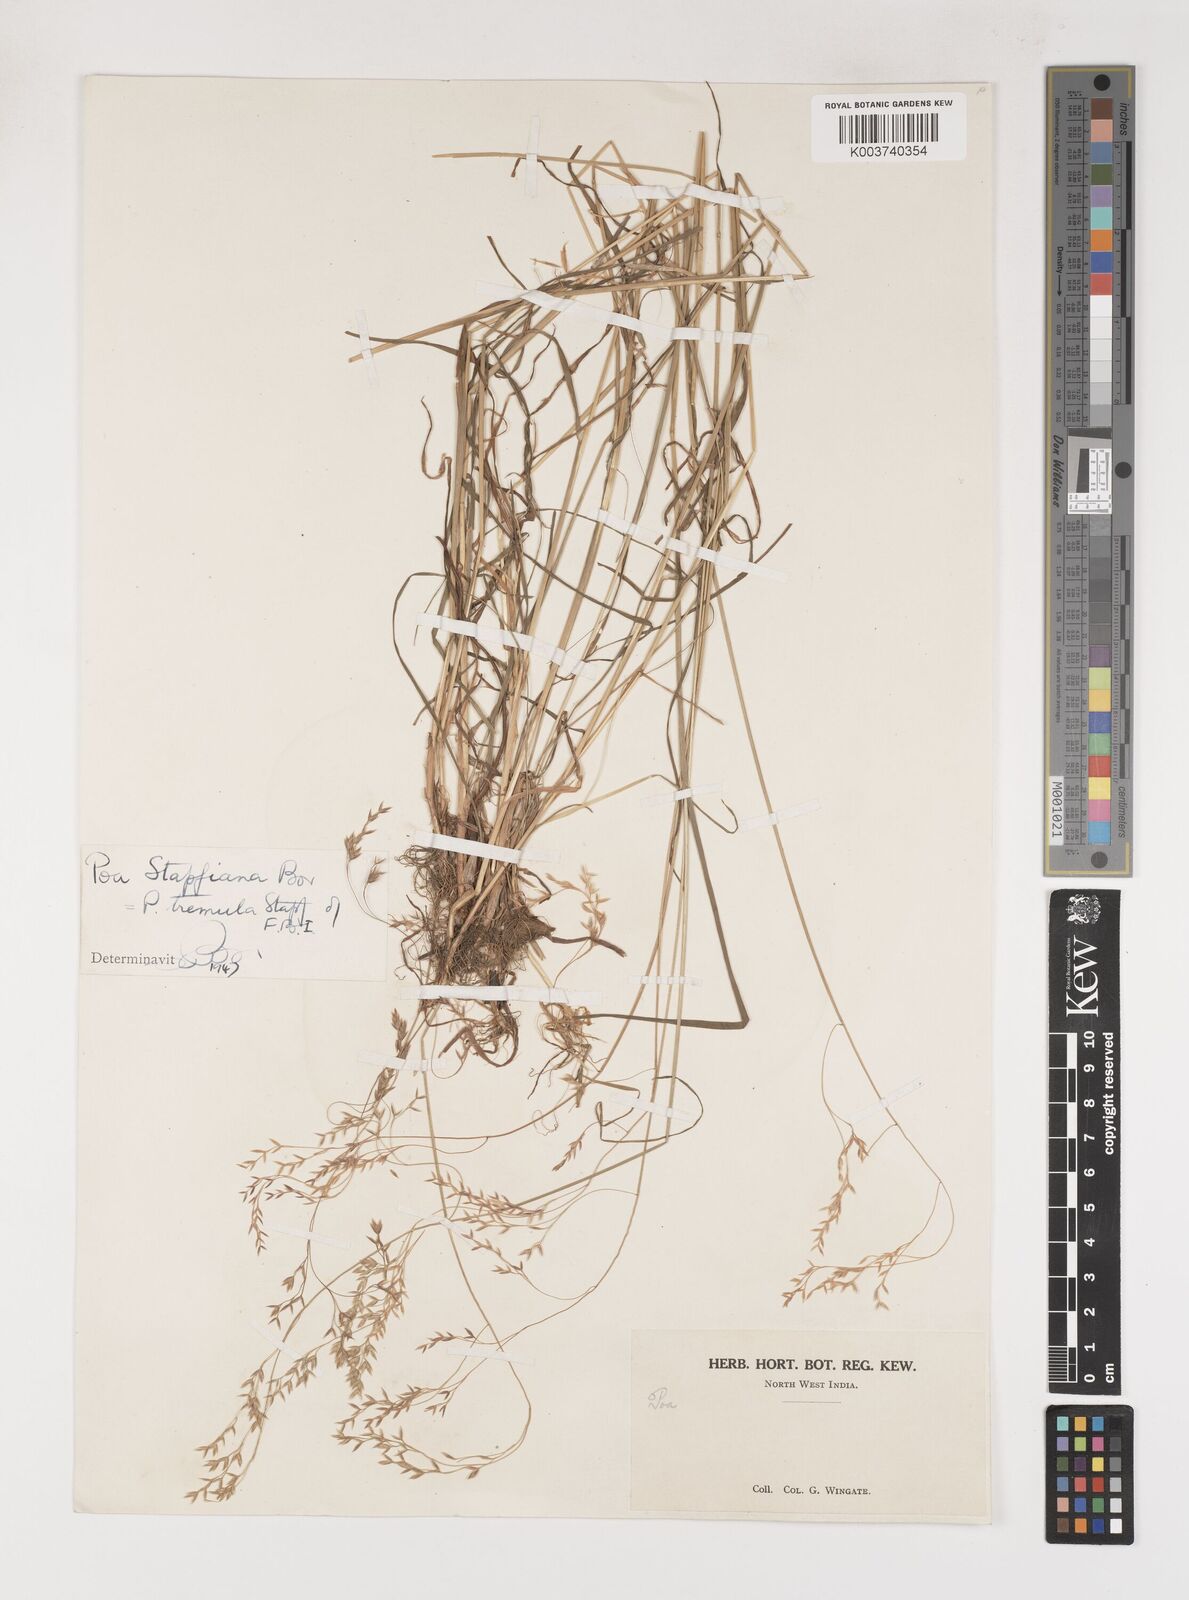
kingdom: Plantae
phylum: Tracheophyta
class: Liliopsida
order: Poales
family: Poaceae
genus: Poa
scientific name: Poa stapfiana
